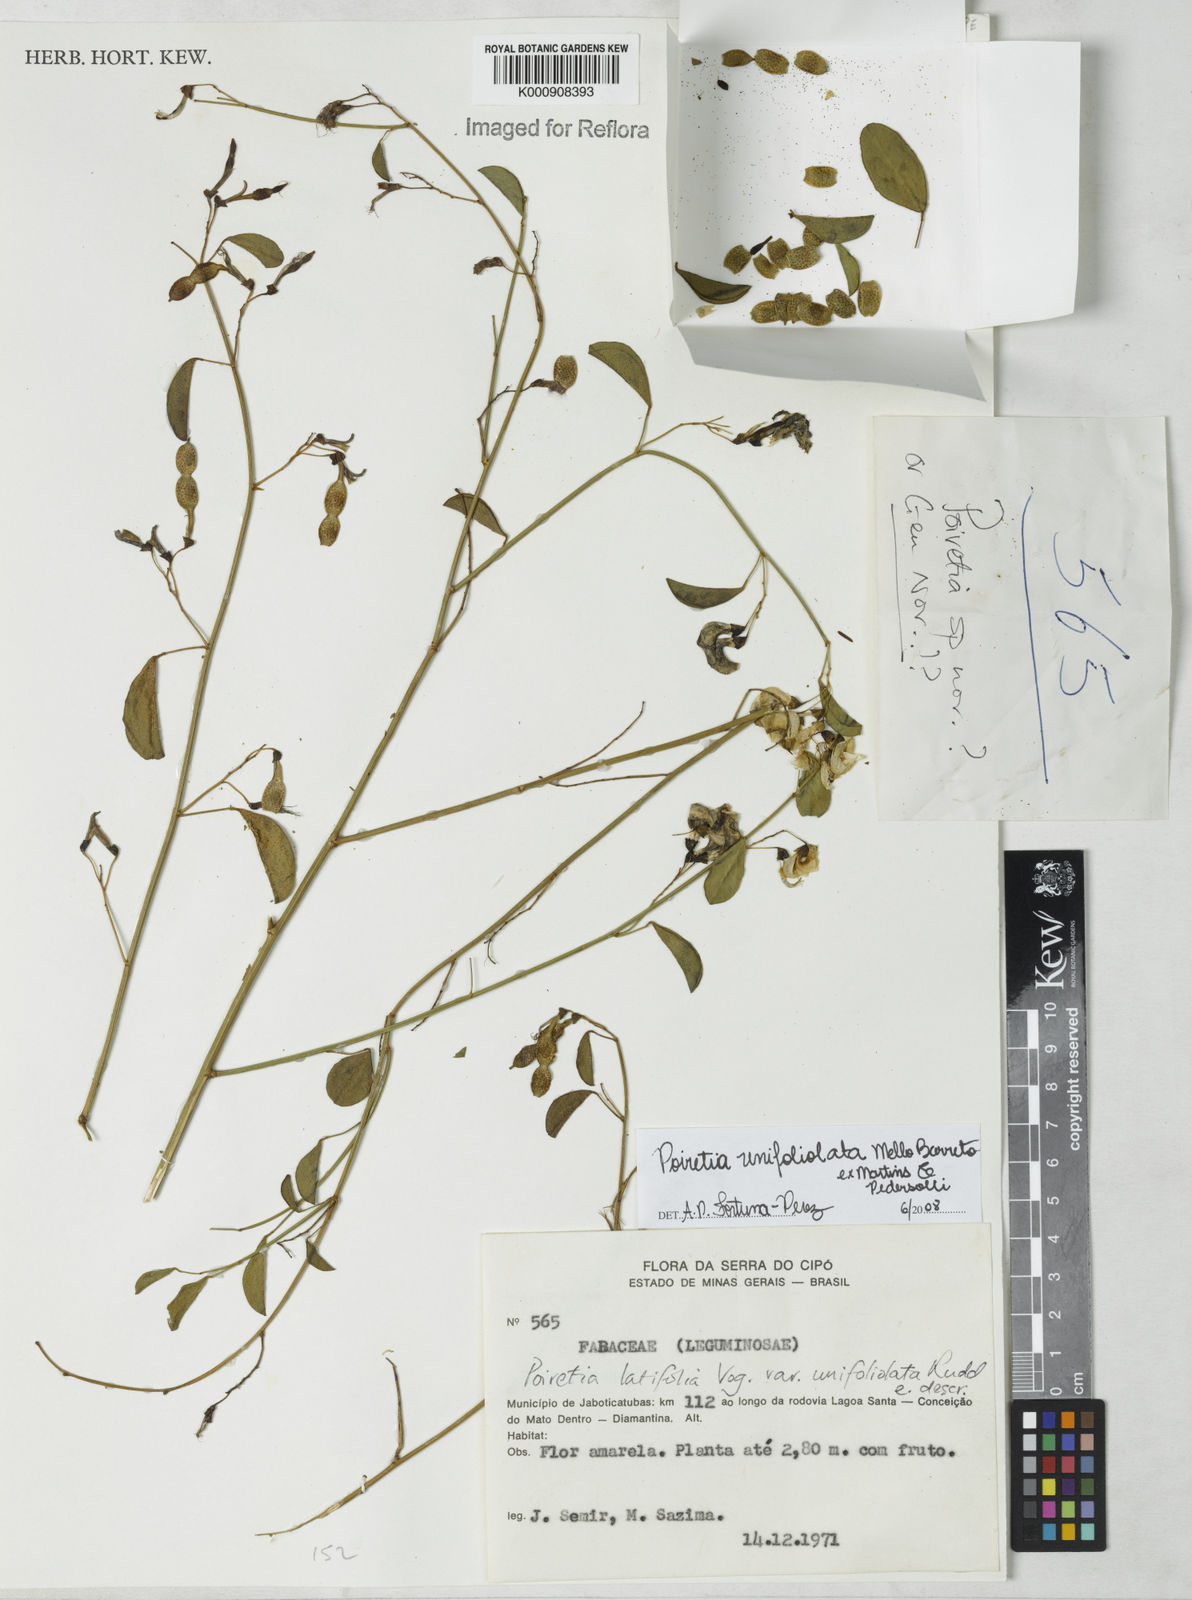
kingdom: Plantae
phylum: Tracheophyta
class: Magnoliopsida
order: Fabales
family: Fabaceae
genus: Poiretia
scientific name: Poiretia unifoliolata
